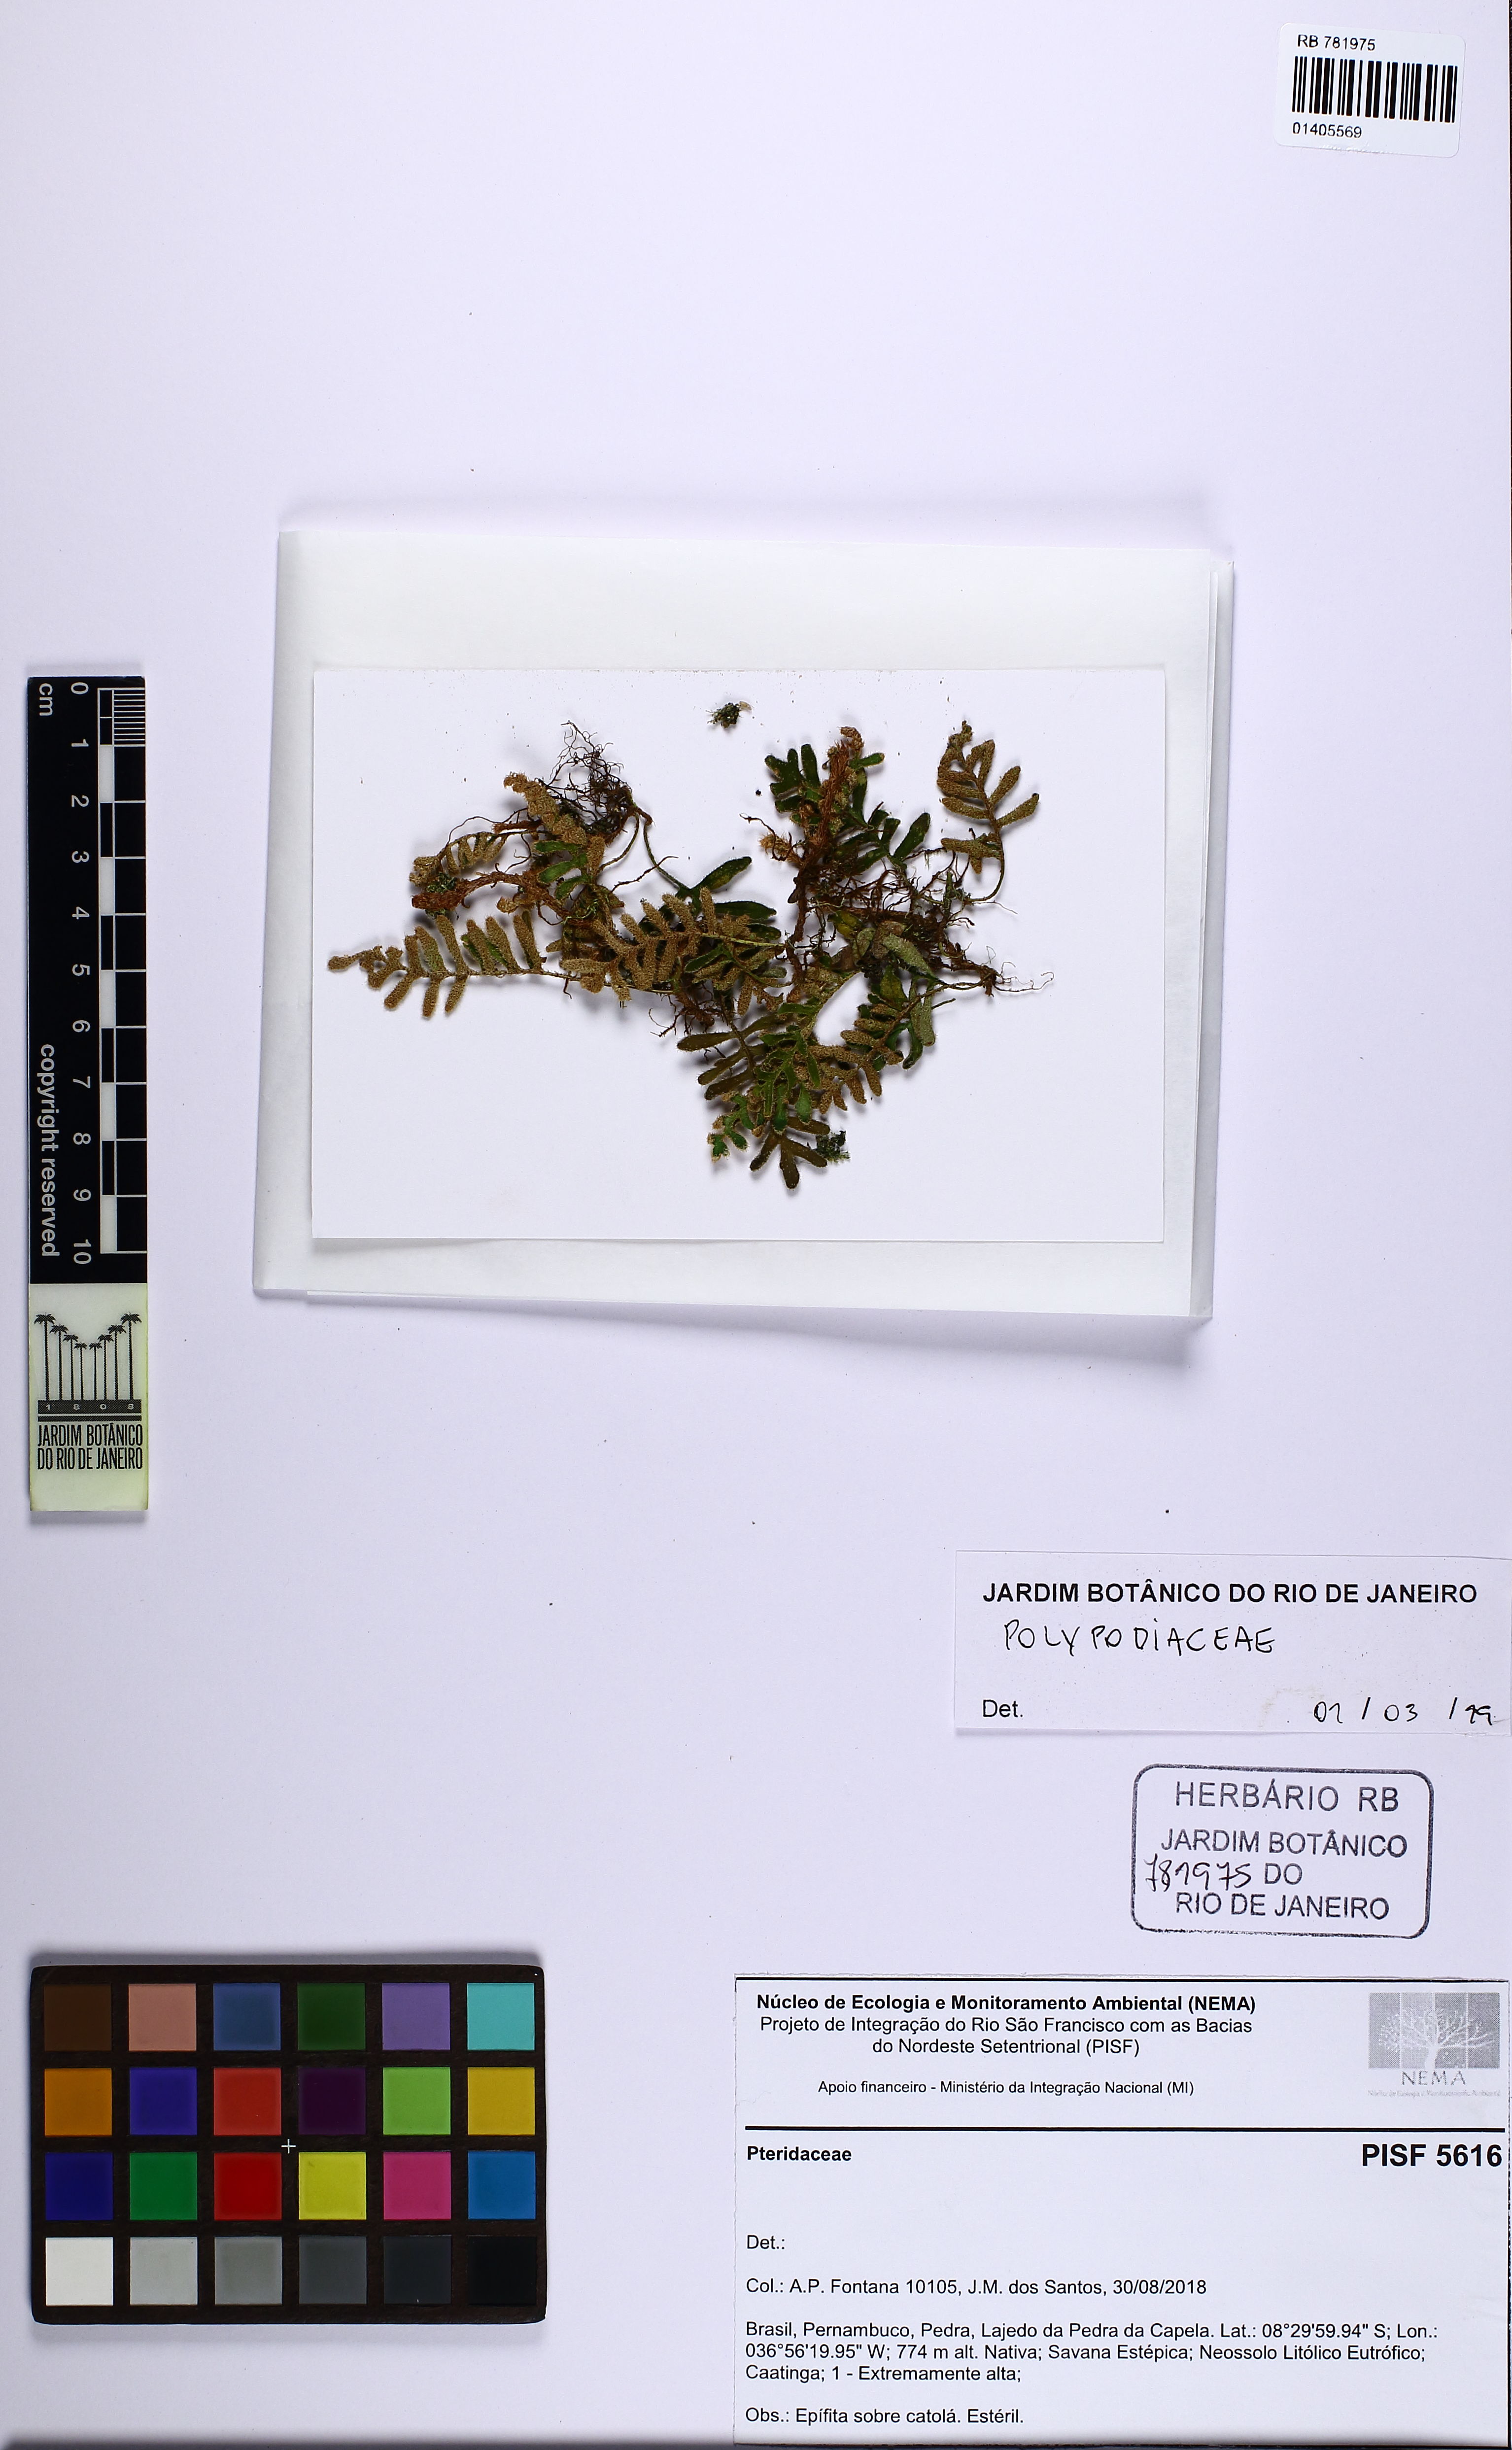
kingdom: Plantae
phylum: Tracheophyta
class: Polypodiopsida
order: Polypodiales
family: Polypodiaceae
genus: Pleopeltis
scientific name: Pleopeltis
